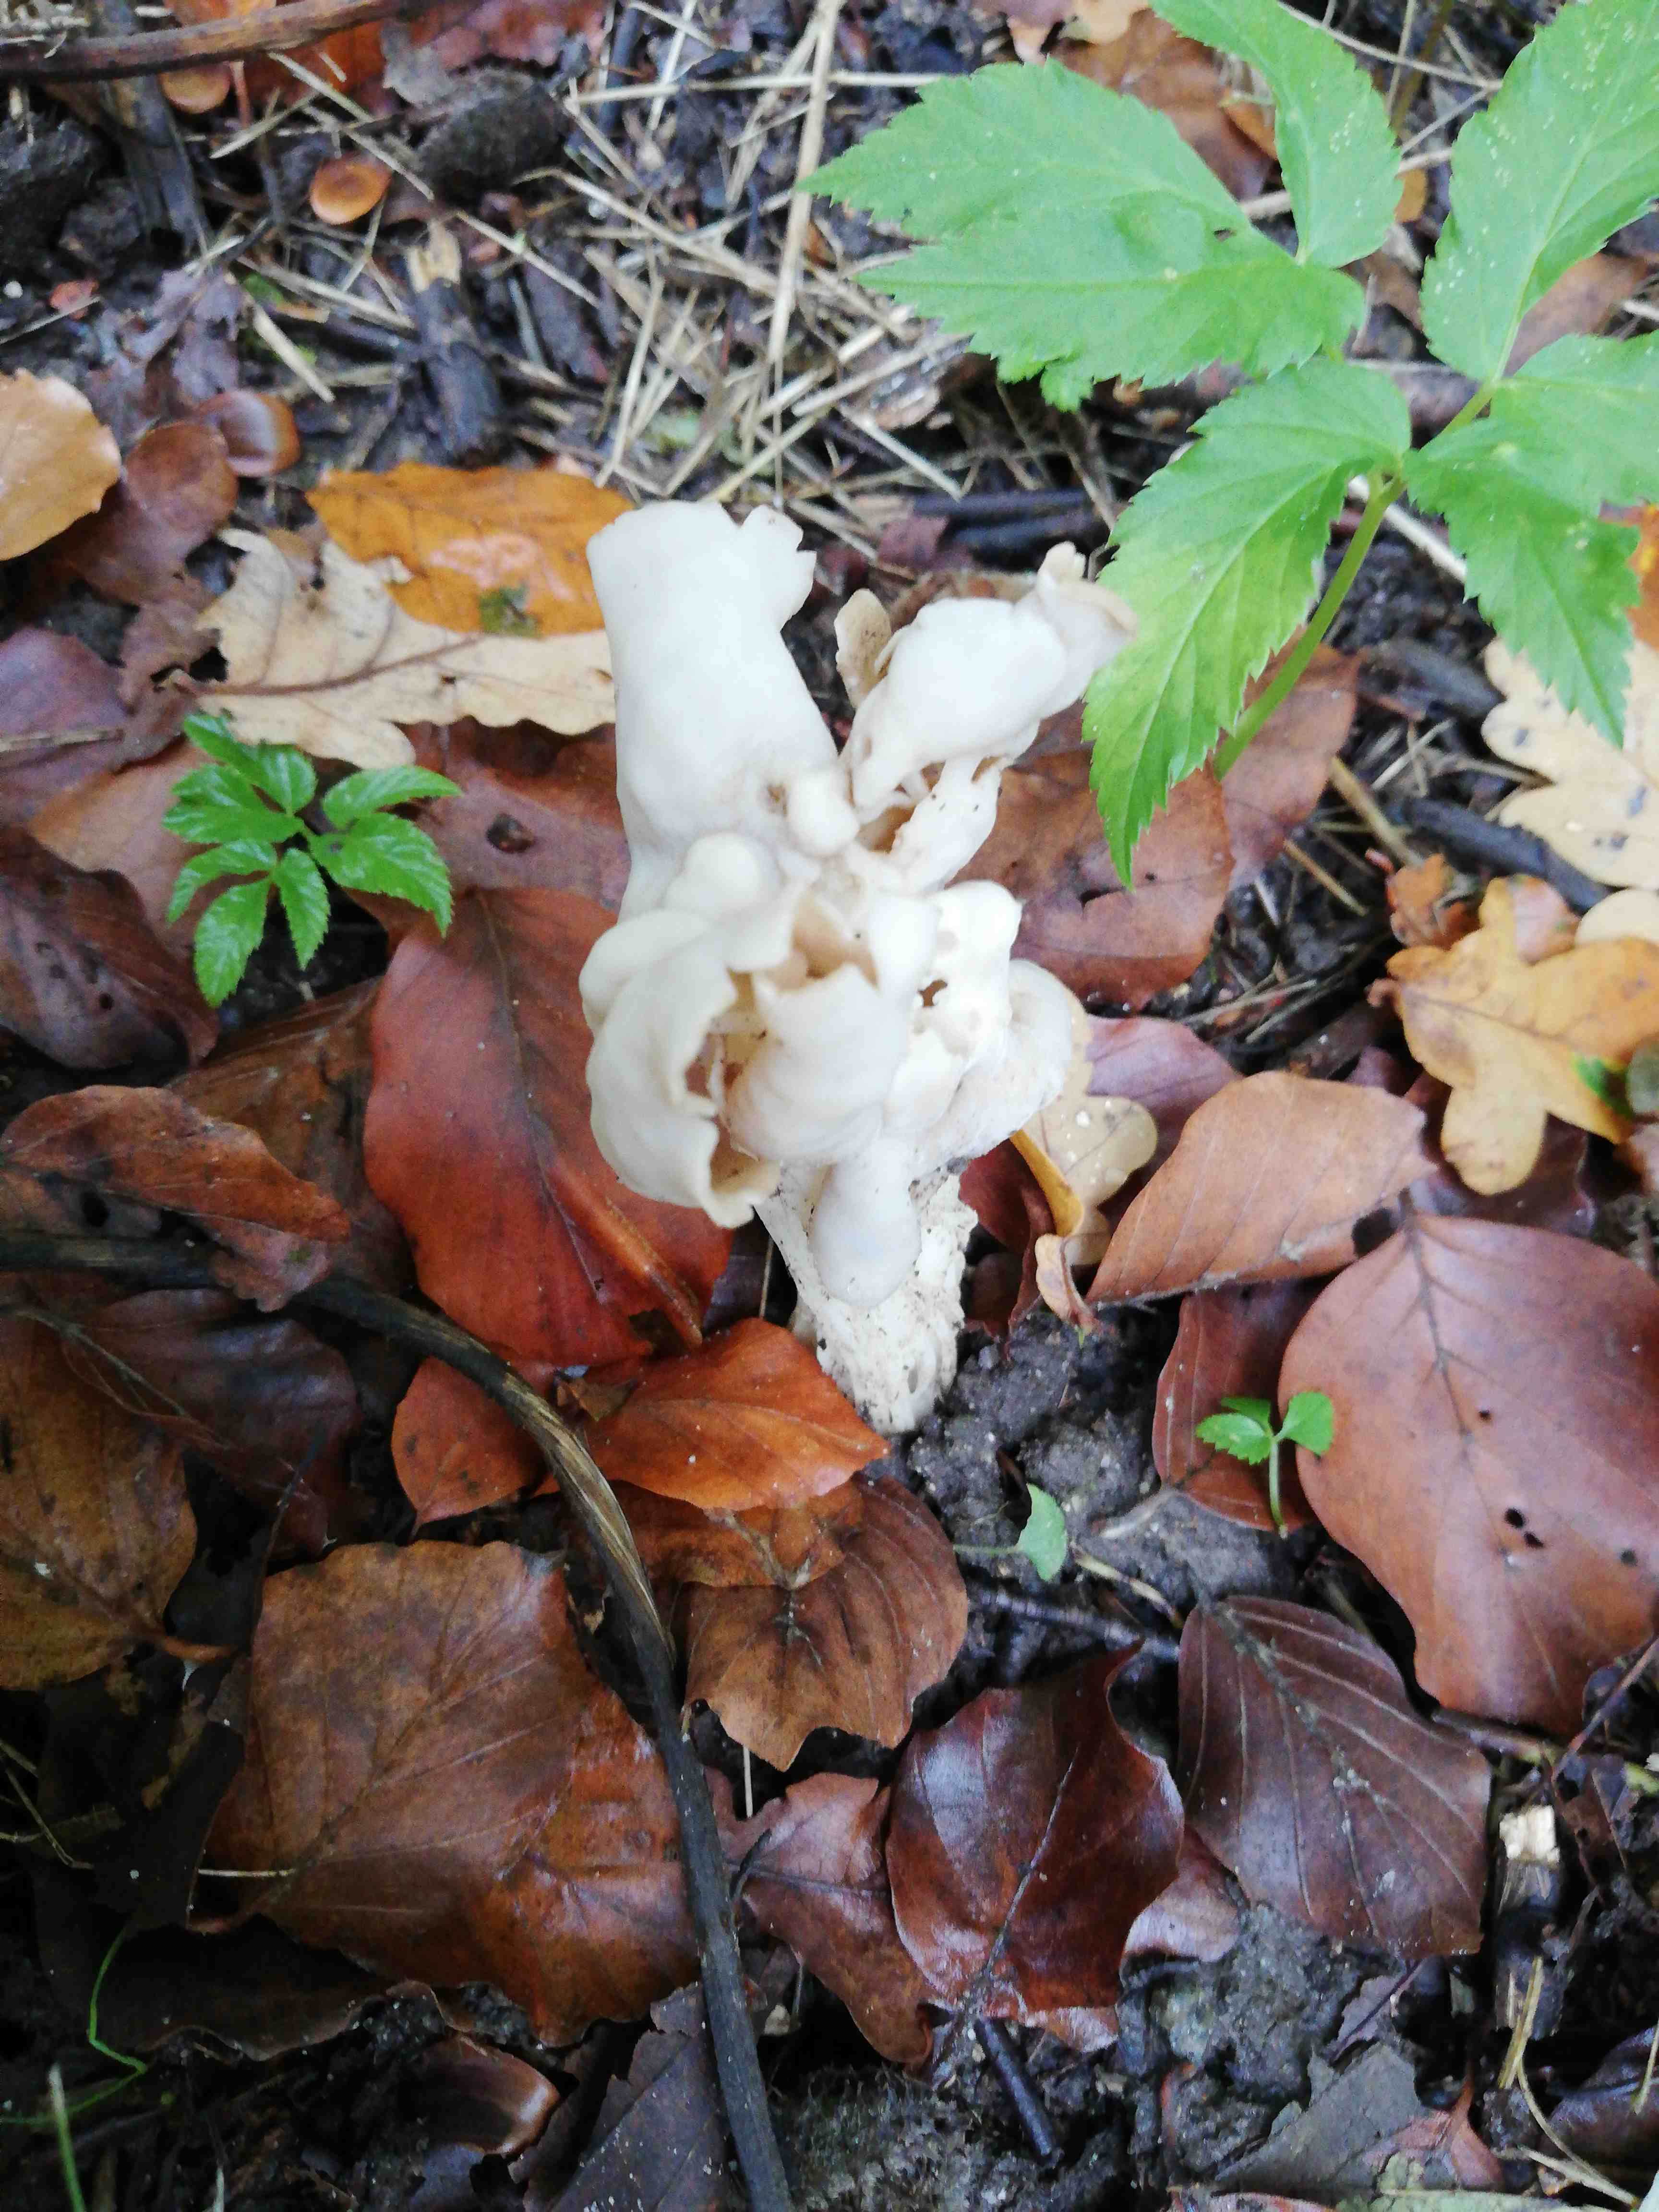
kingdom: Fungi
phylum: Ascomycota
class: Pezizomycetes
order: Pezizales
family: Helvellaceae
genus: Helvella
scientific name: Helvella crispa
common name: kruset foldhat
